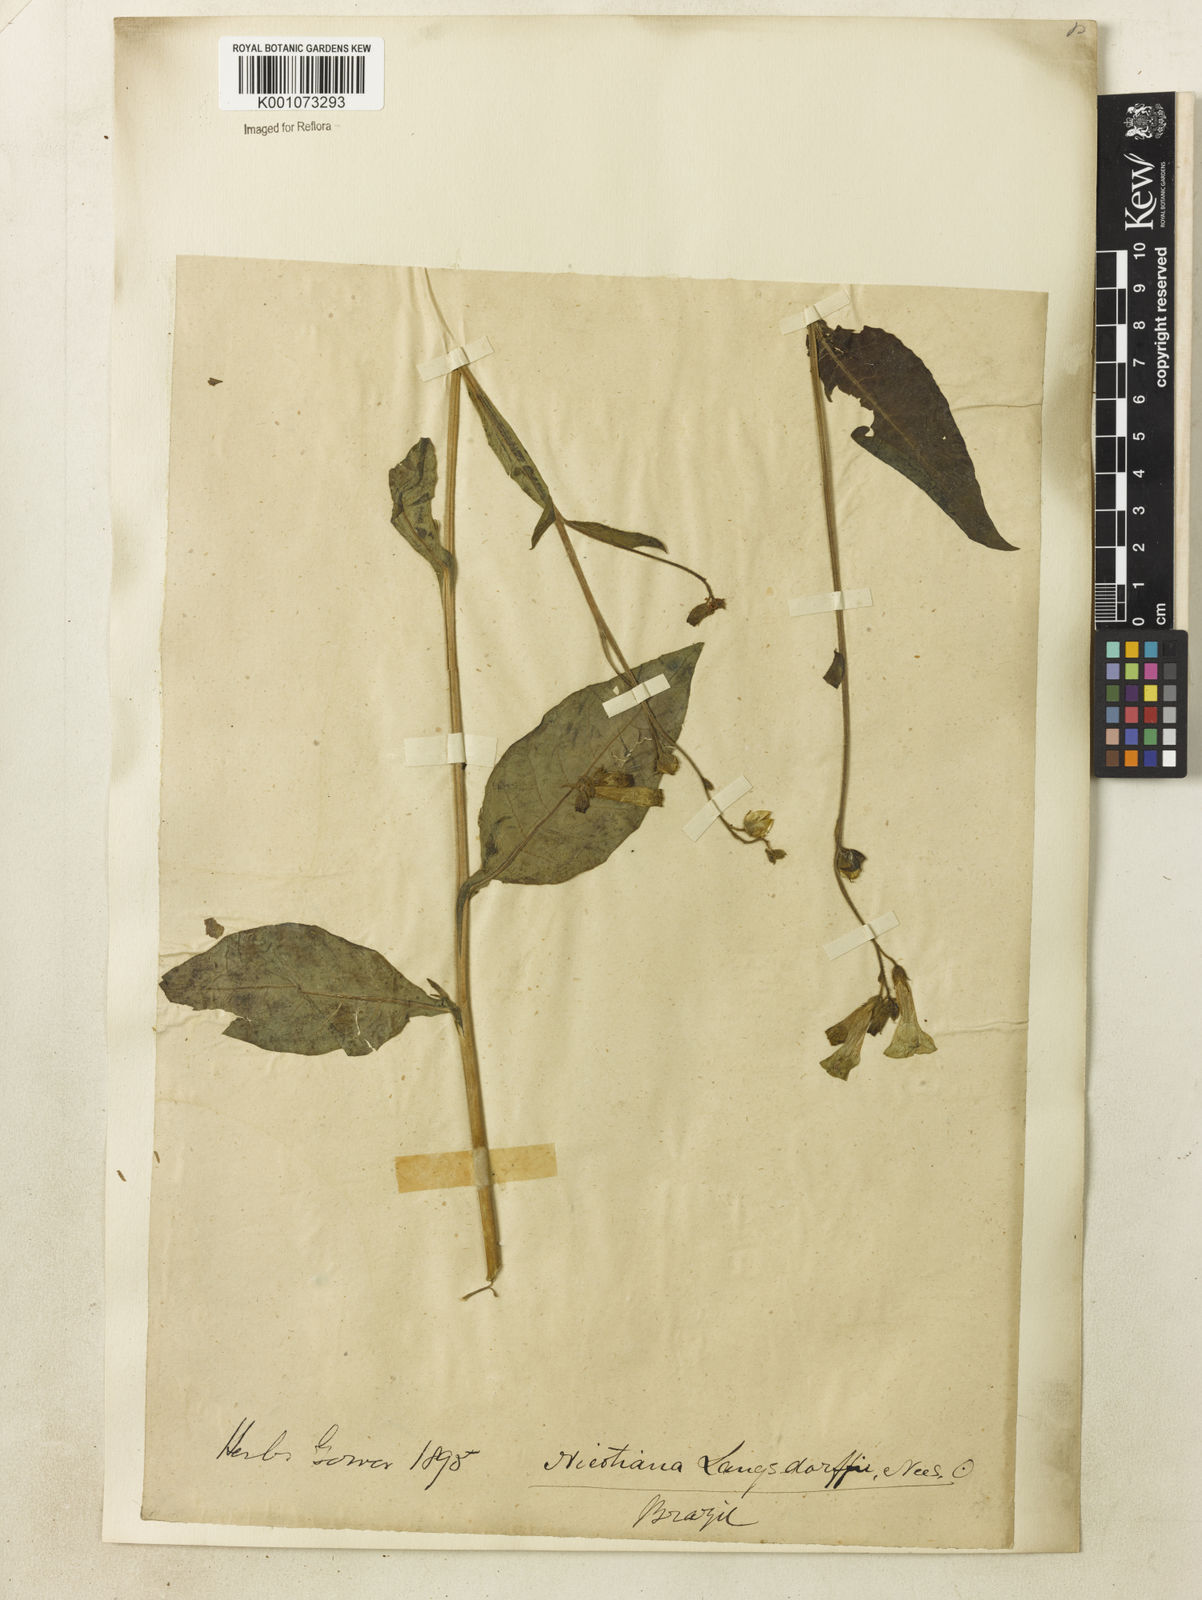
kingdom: Plantae
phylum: Tracheophyta
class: Magnoliopsida
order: Solanales
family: Solanaceae
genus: Nicotiana
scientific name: Nicotiana
